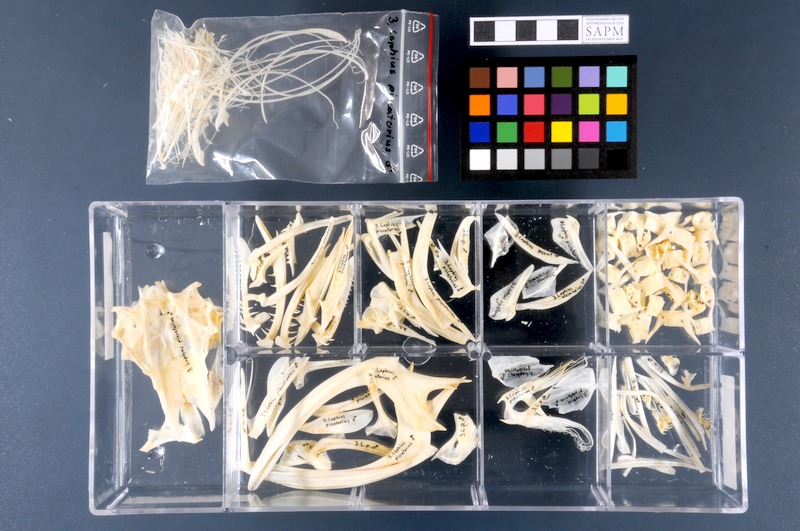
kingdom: Animalia
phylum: Chordata
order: Lophiiformes
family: Lophiidae
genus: Lophius
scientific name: Lophius piscatorius
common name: Angler
